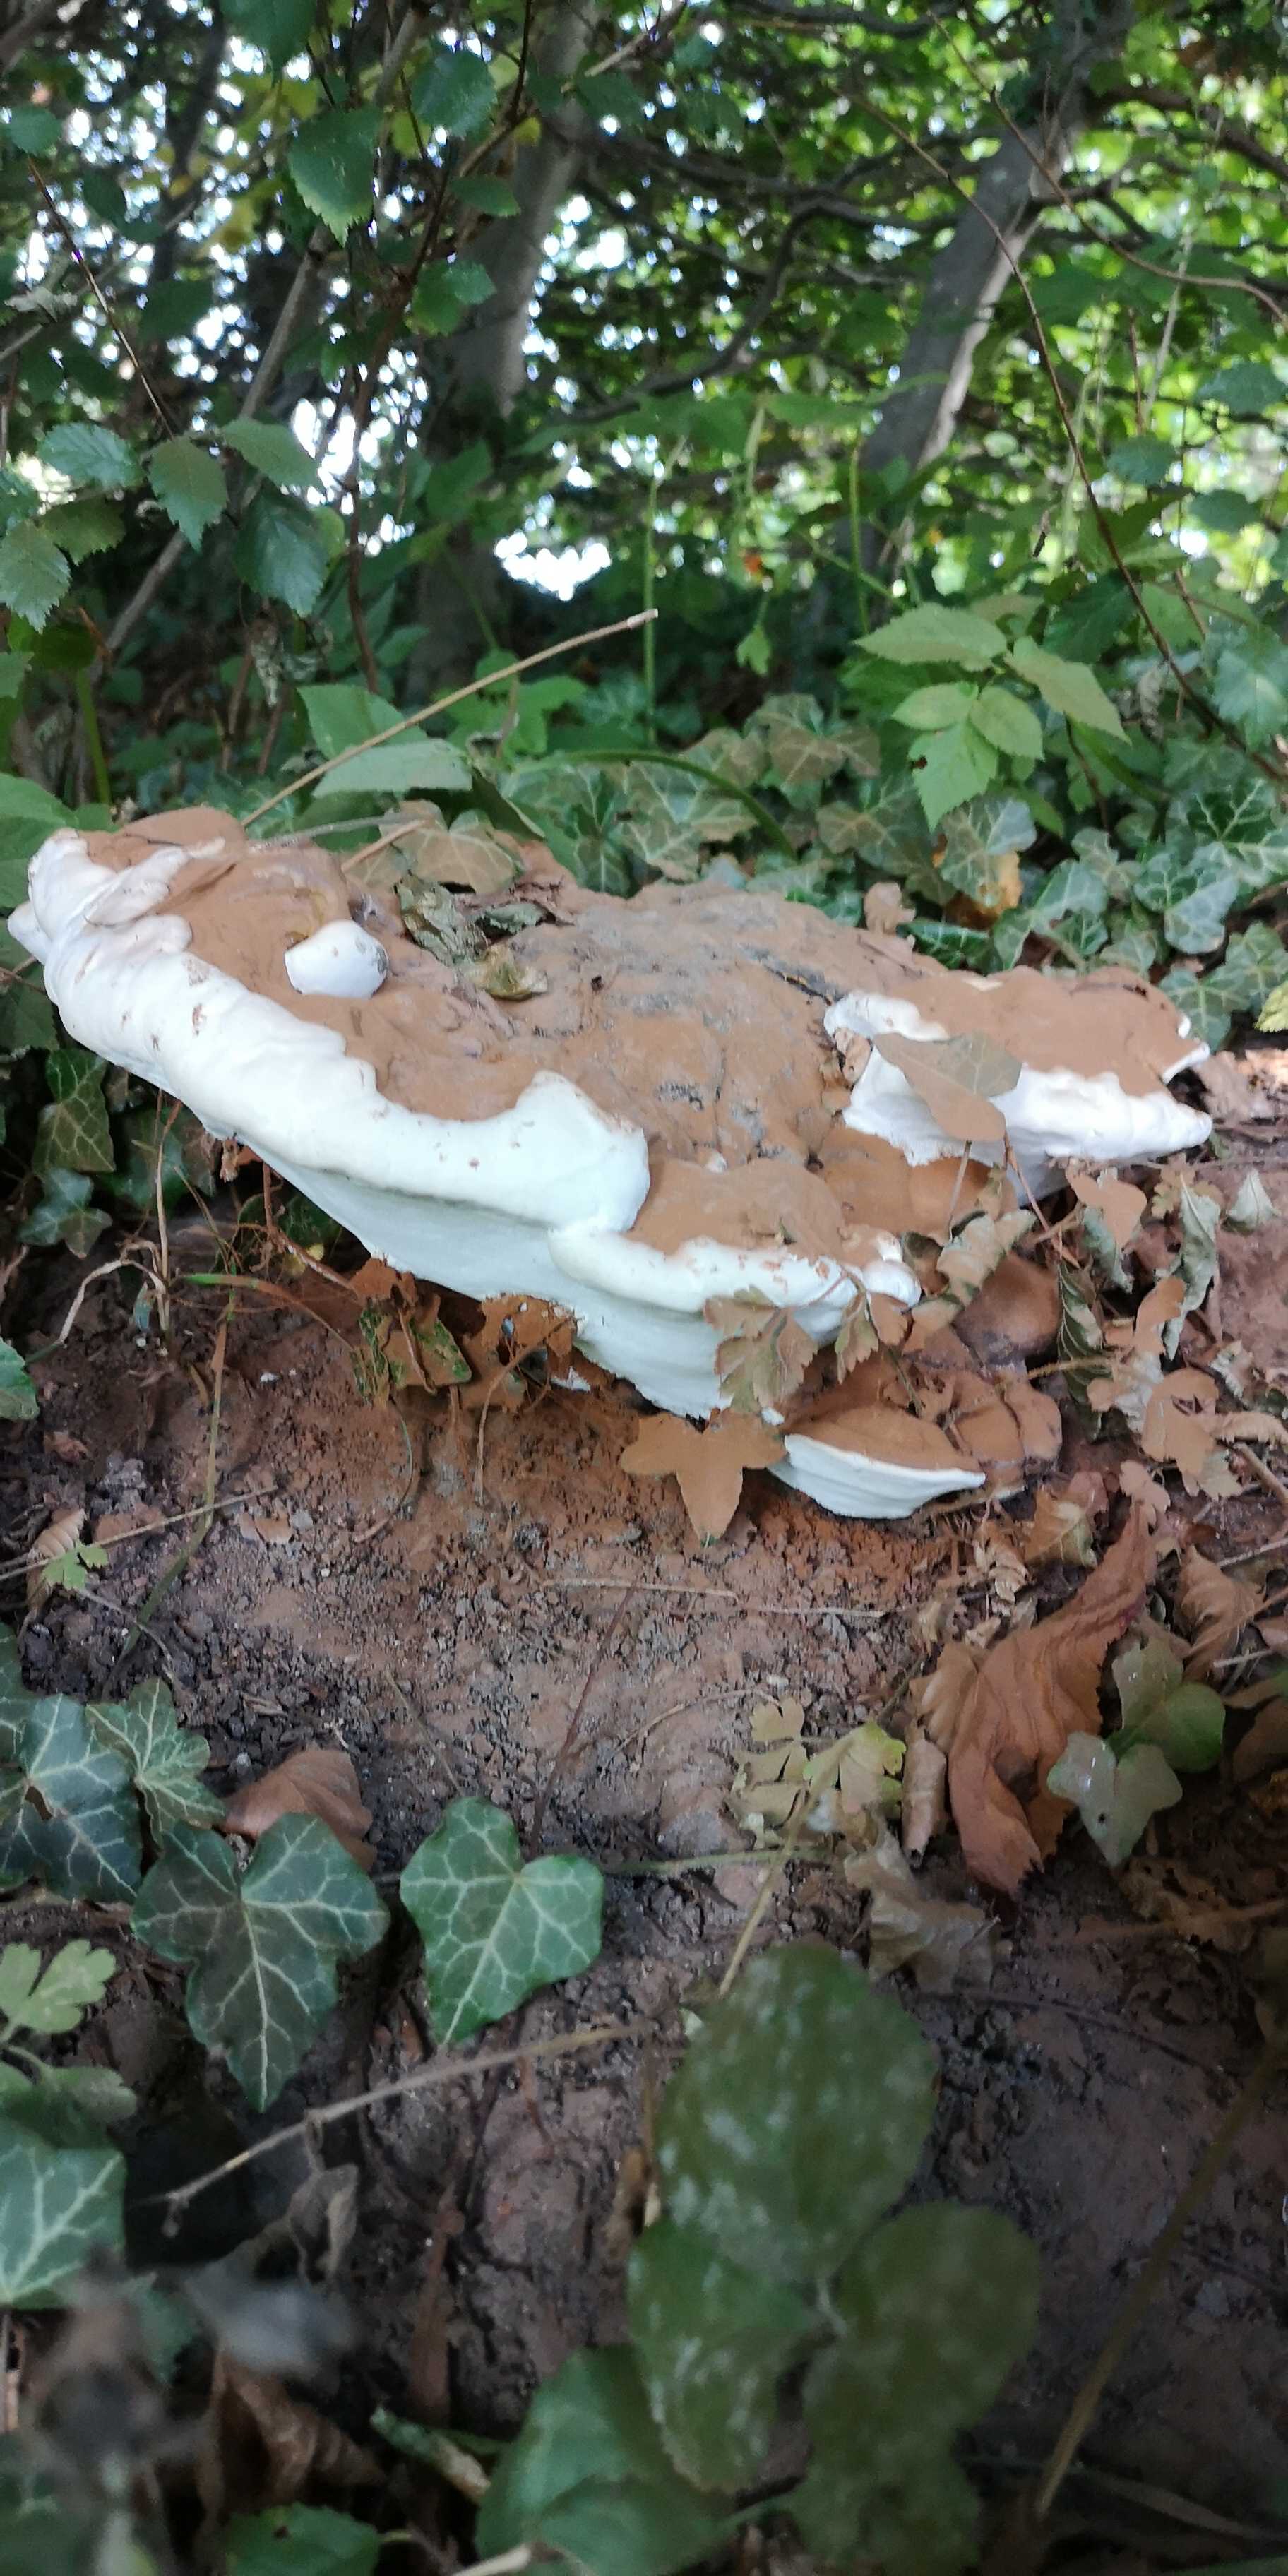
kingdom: Fungi
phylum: Basidiomycota
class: Agaricomycetes
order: Polyporales
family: Polyporaceae
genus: Ganoderma
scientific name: Ganoderma pfeifferi
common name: kobberrød lakporesvamp
